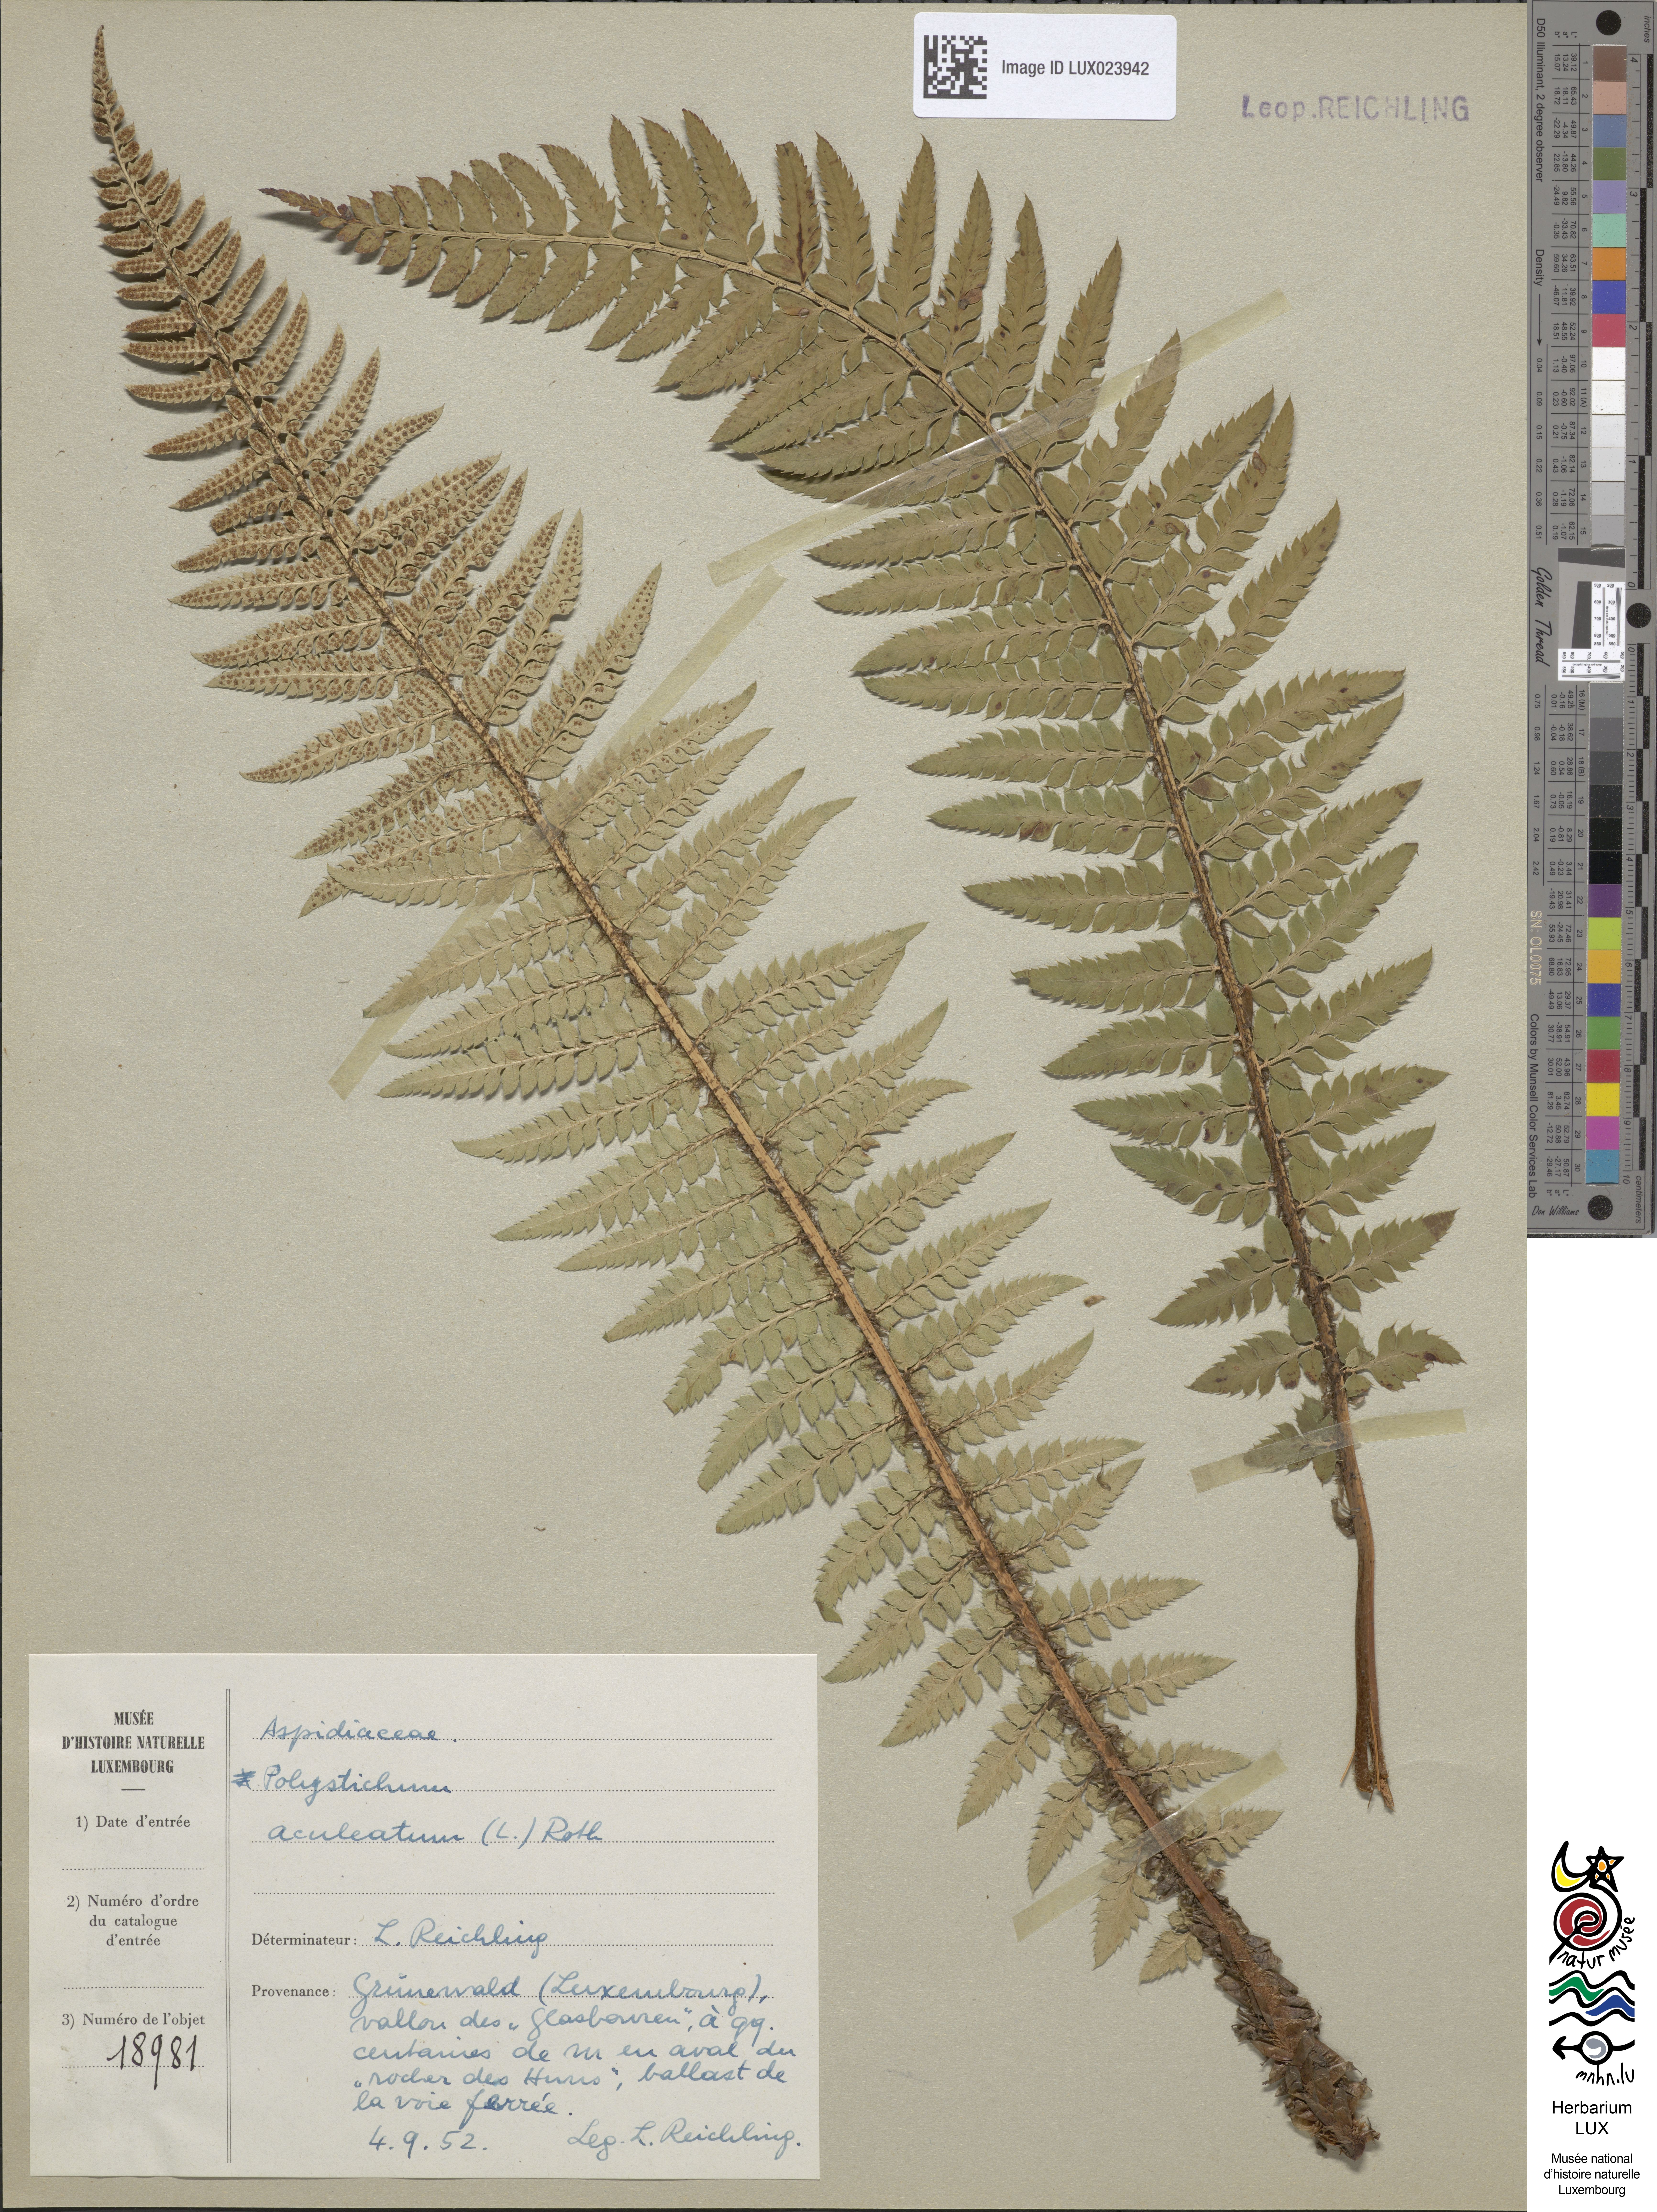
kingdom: Plantae
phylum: Tracheophyta
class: Polypodiopsida
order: Polypodiales
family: Dryopteridaceae
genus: Polystichum
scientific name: Polystichum aculeatum
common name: Hard shield-fern
